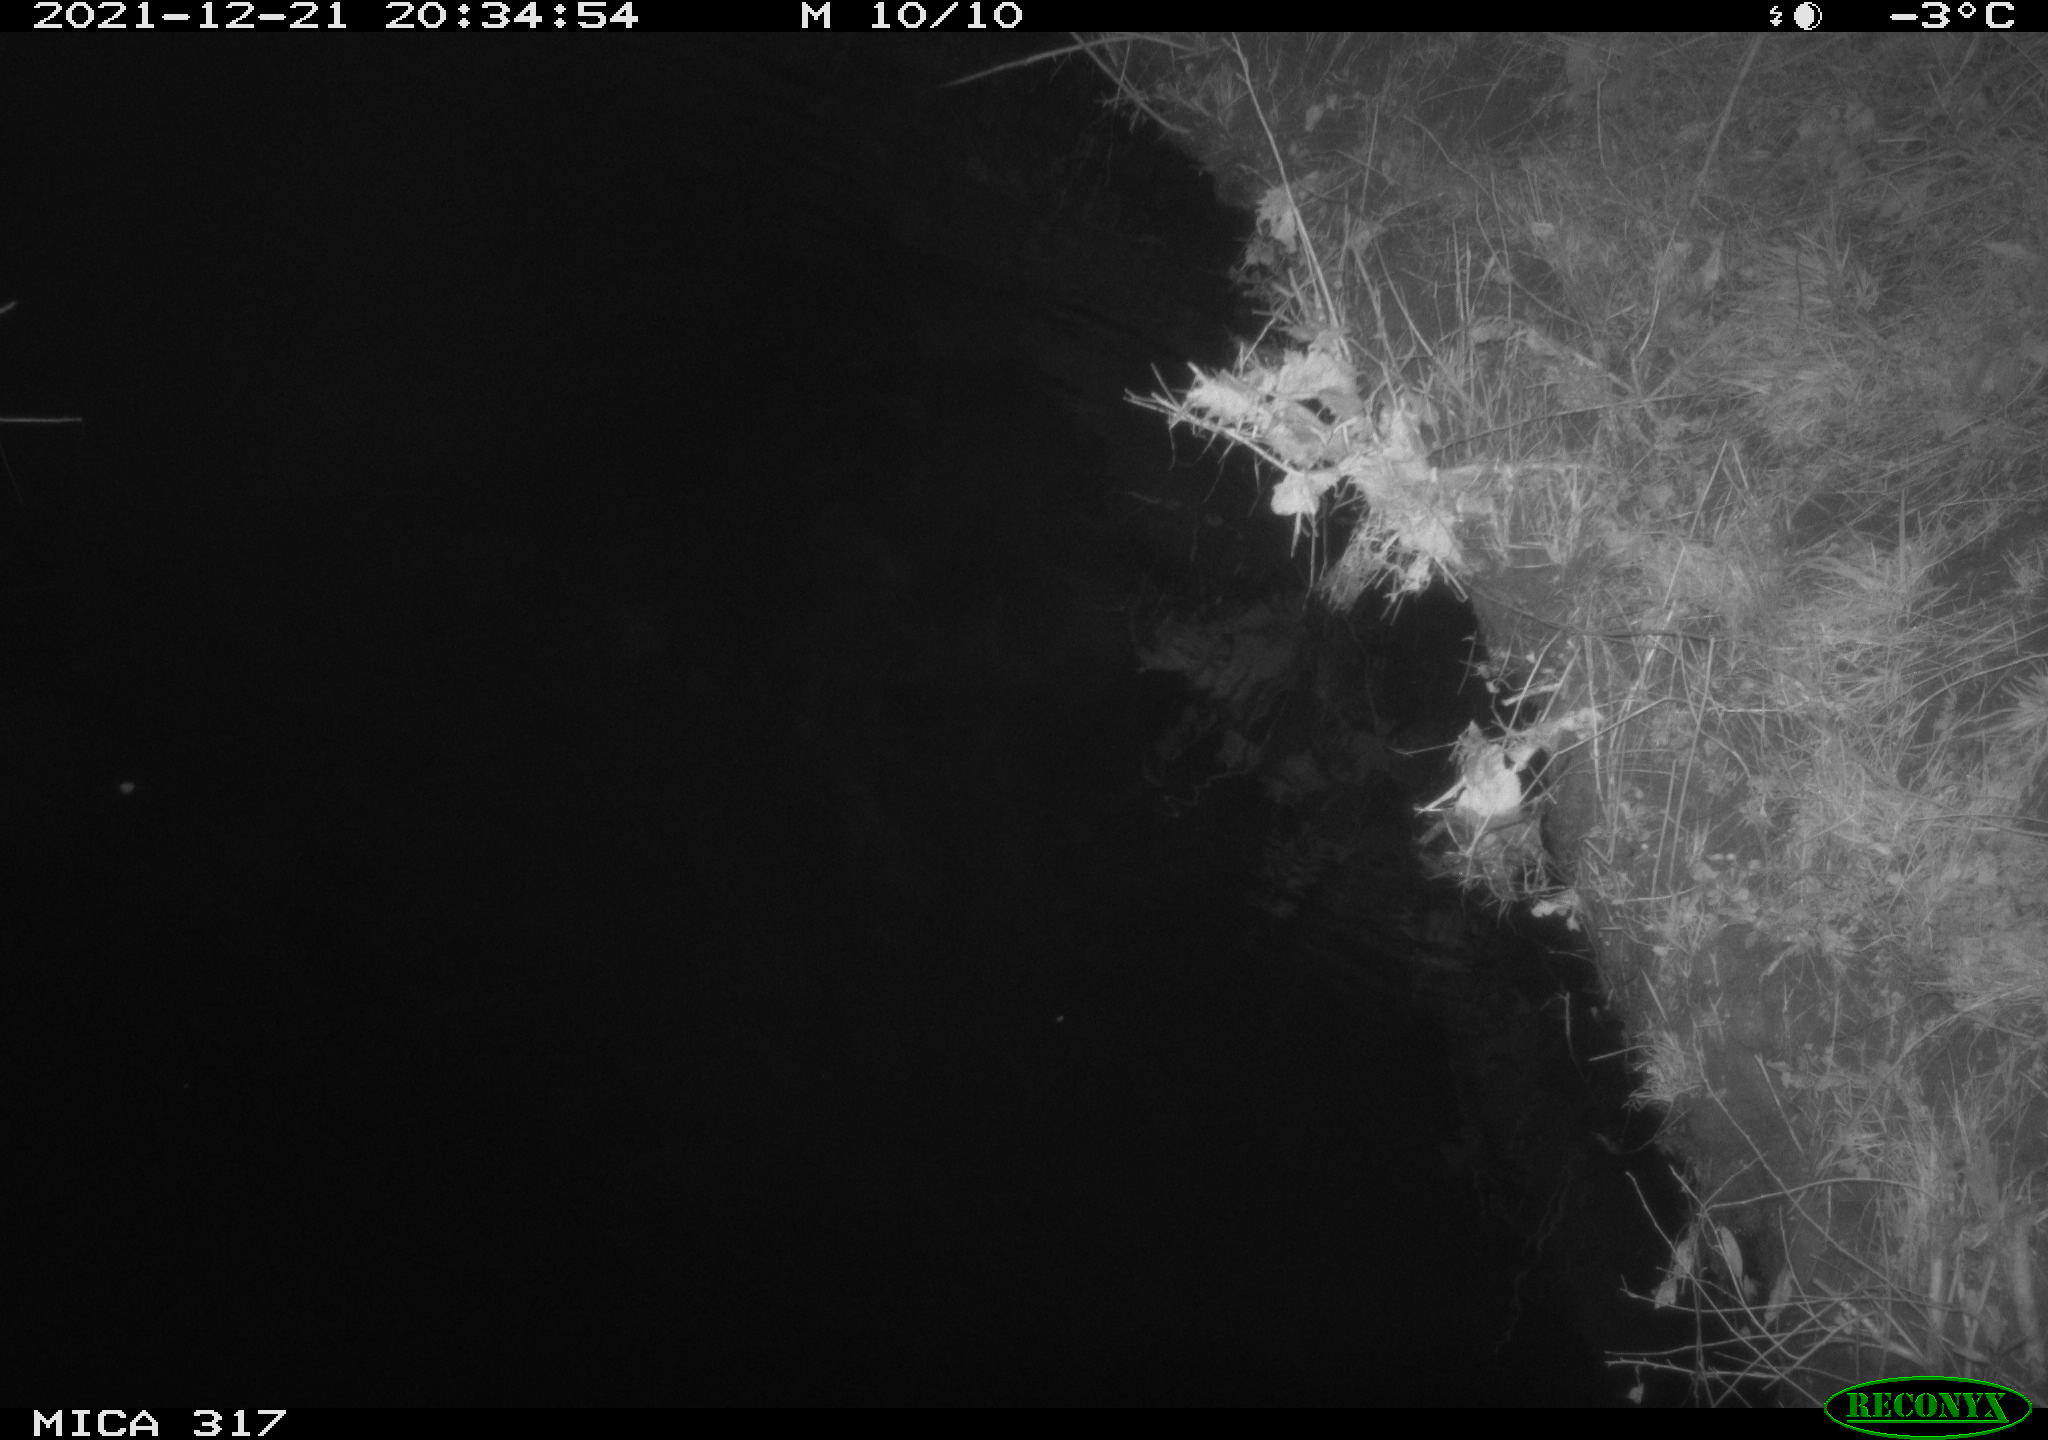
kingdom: Animalia
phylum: Chordata
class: Aves
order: Anseriformes
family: Anatidae
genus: Anas
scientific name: Anas platyrhynchos
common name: Mallard
